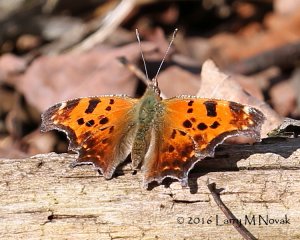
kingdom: Animalia
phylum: Arthropoda
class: Insecta
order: Lepidoptera
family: Nymphalidae
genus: Polygonia
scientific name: Polygonia comma
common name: Eastern Comma
